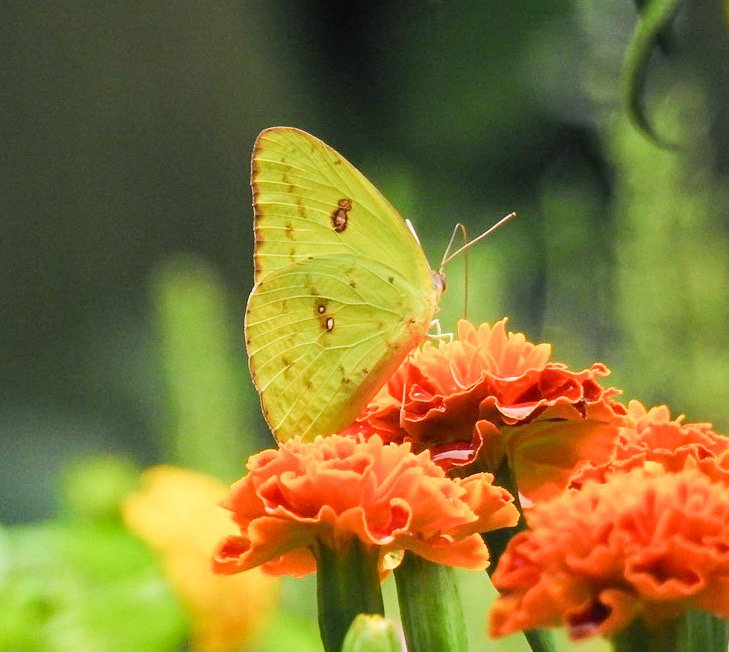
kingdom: Animalia
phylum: Arthropoda
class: Insecta
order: Lepidoptera
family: Pieridae
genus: Phoebis
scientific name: Phoebis sennae
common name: Cloudless Sulphur
